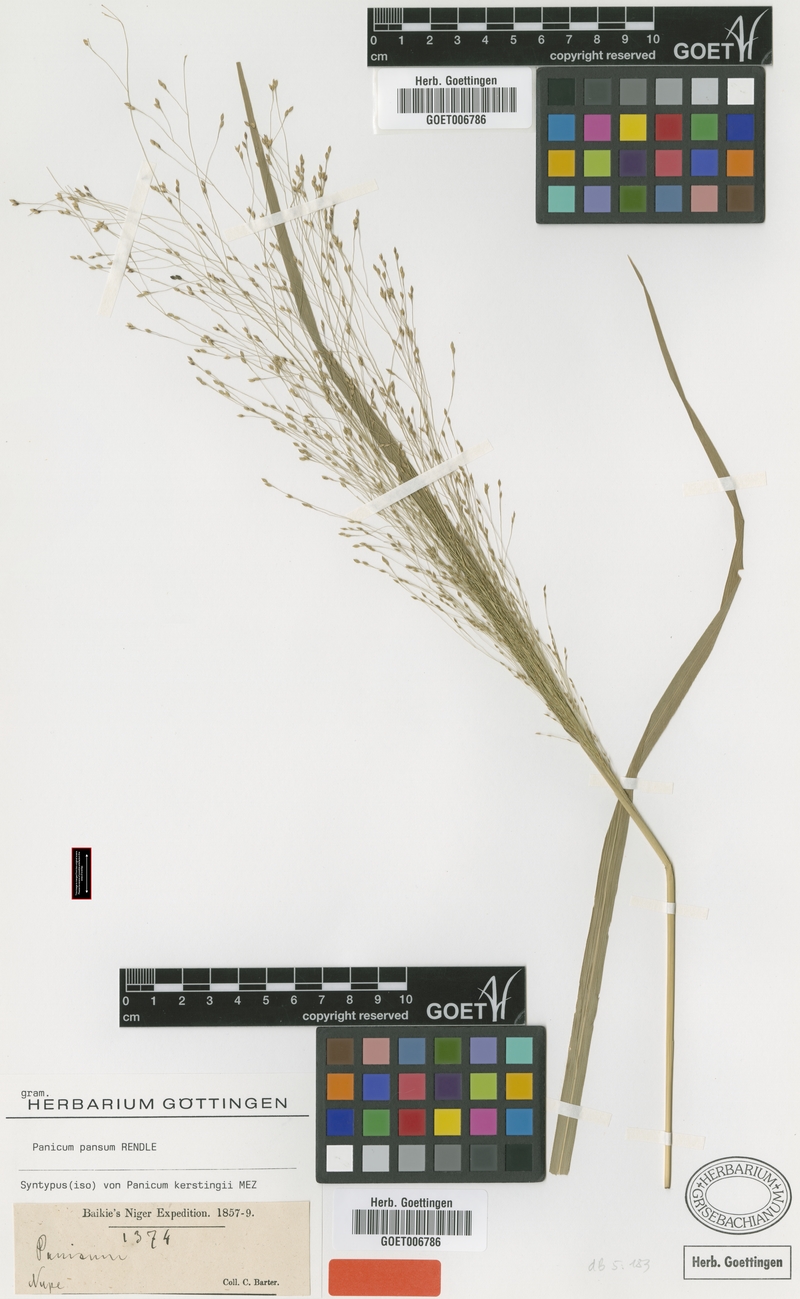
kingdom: Plantae
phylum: Tracheophyta
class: Liliopsida
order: Poales
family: Poaceae
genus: Panicum
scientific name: Panicum pansum
